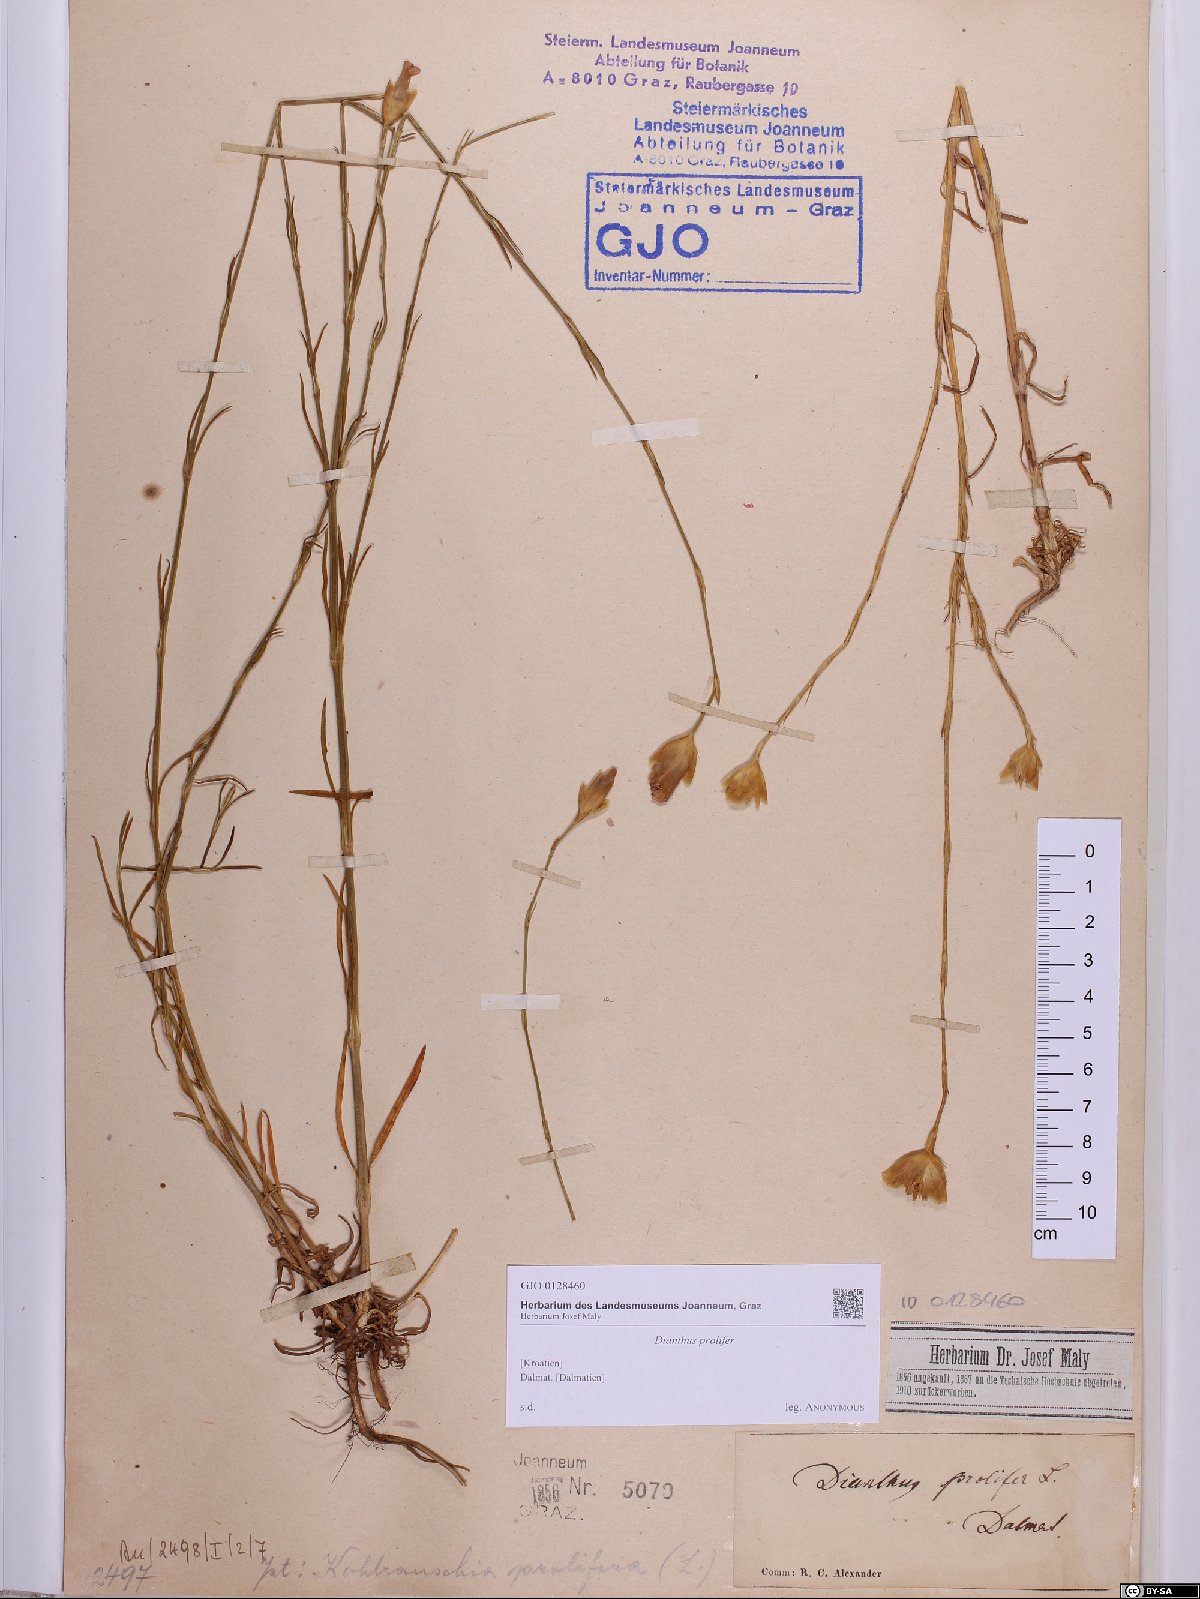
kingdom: Plantae
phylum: Tracheophyta
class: Magnoliopsida
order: Caryophyllales
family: Caryophyllaceae
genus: Petrorhagia
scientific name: Petrorhagia prolifera
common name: Proliferous pink
